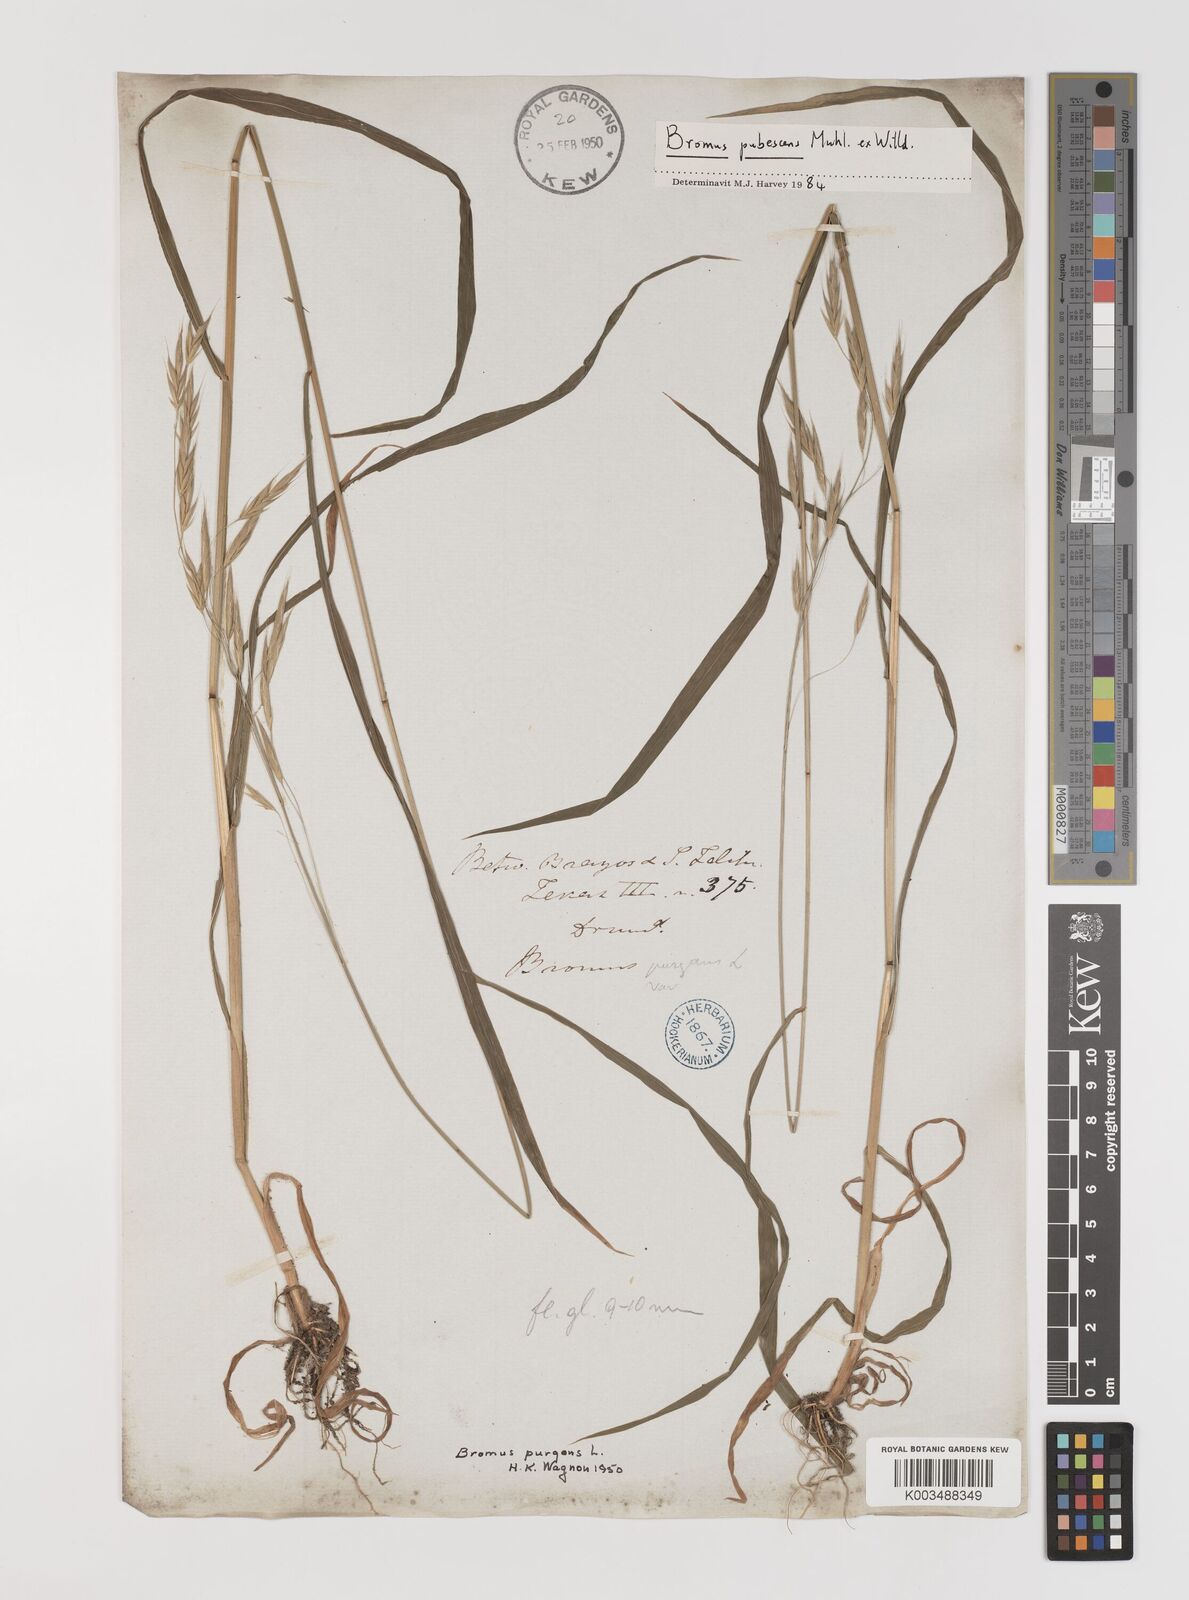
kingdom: Plantae
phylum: Tracheophyta
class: Liliopsida
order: Poales
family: Poaceae
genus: Bromus
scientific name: Bromus pubescens
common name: Hairy wood brome grass
